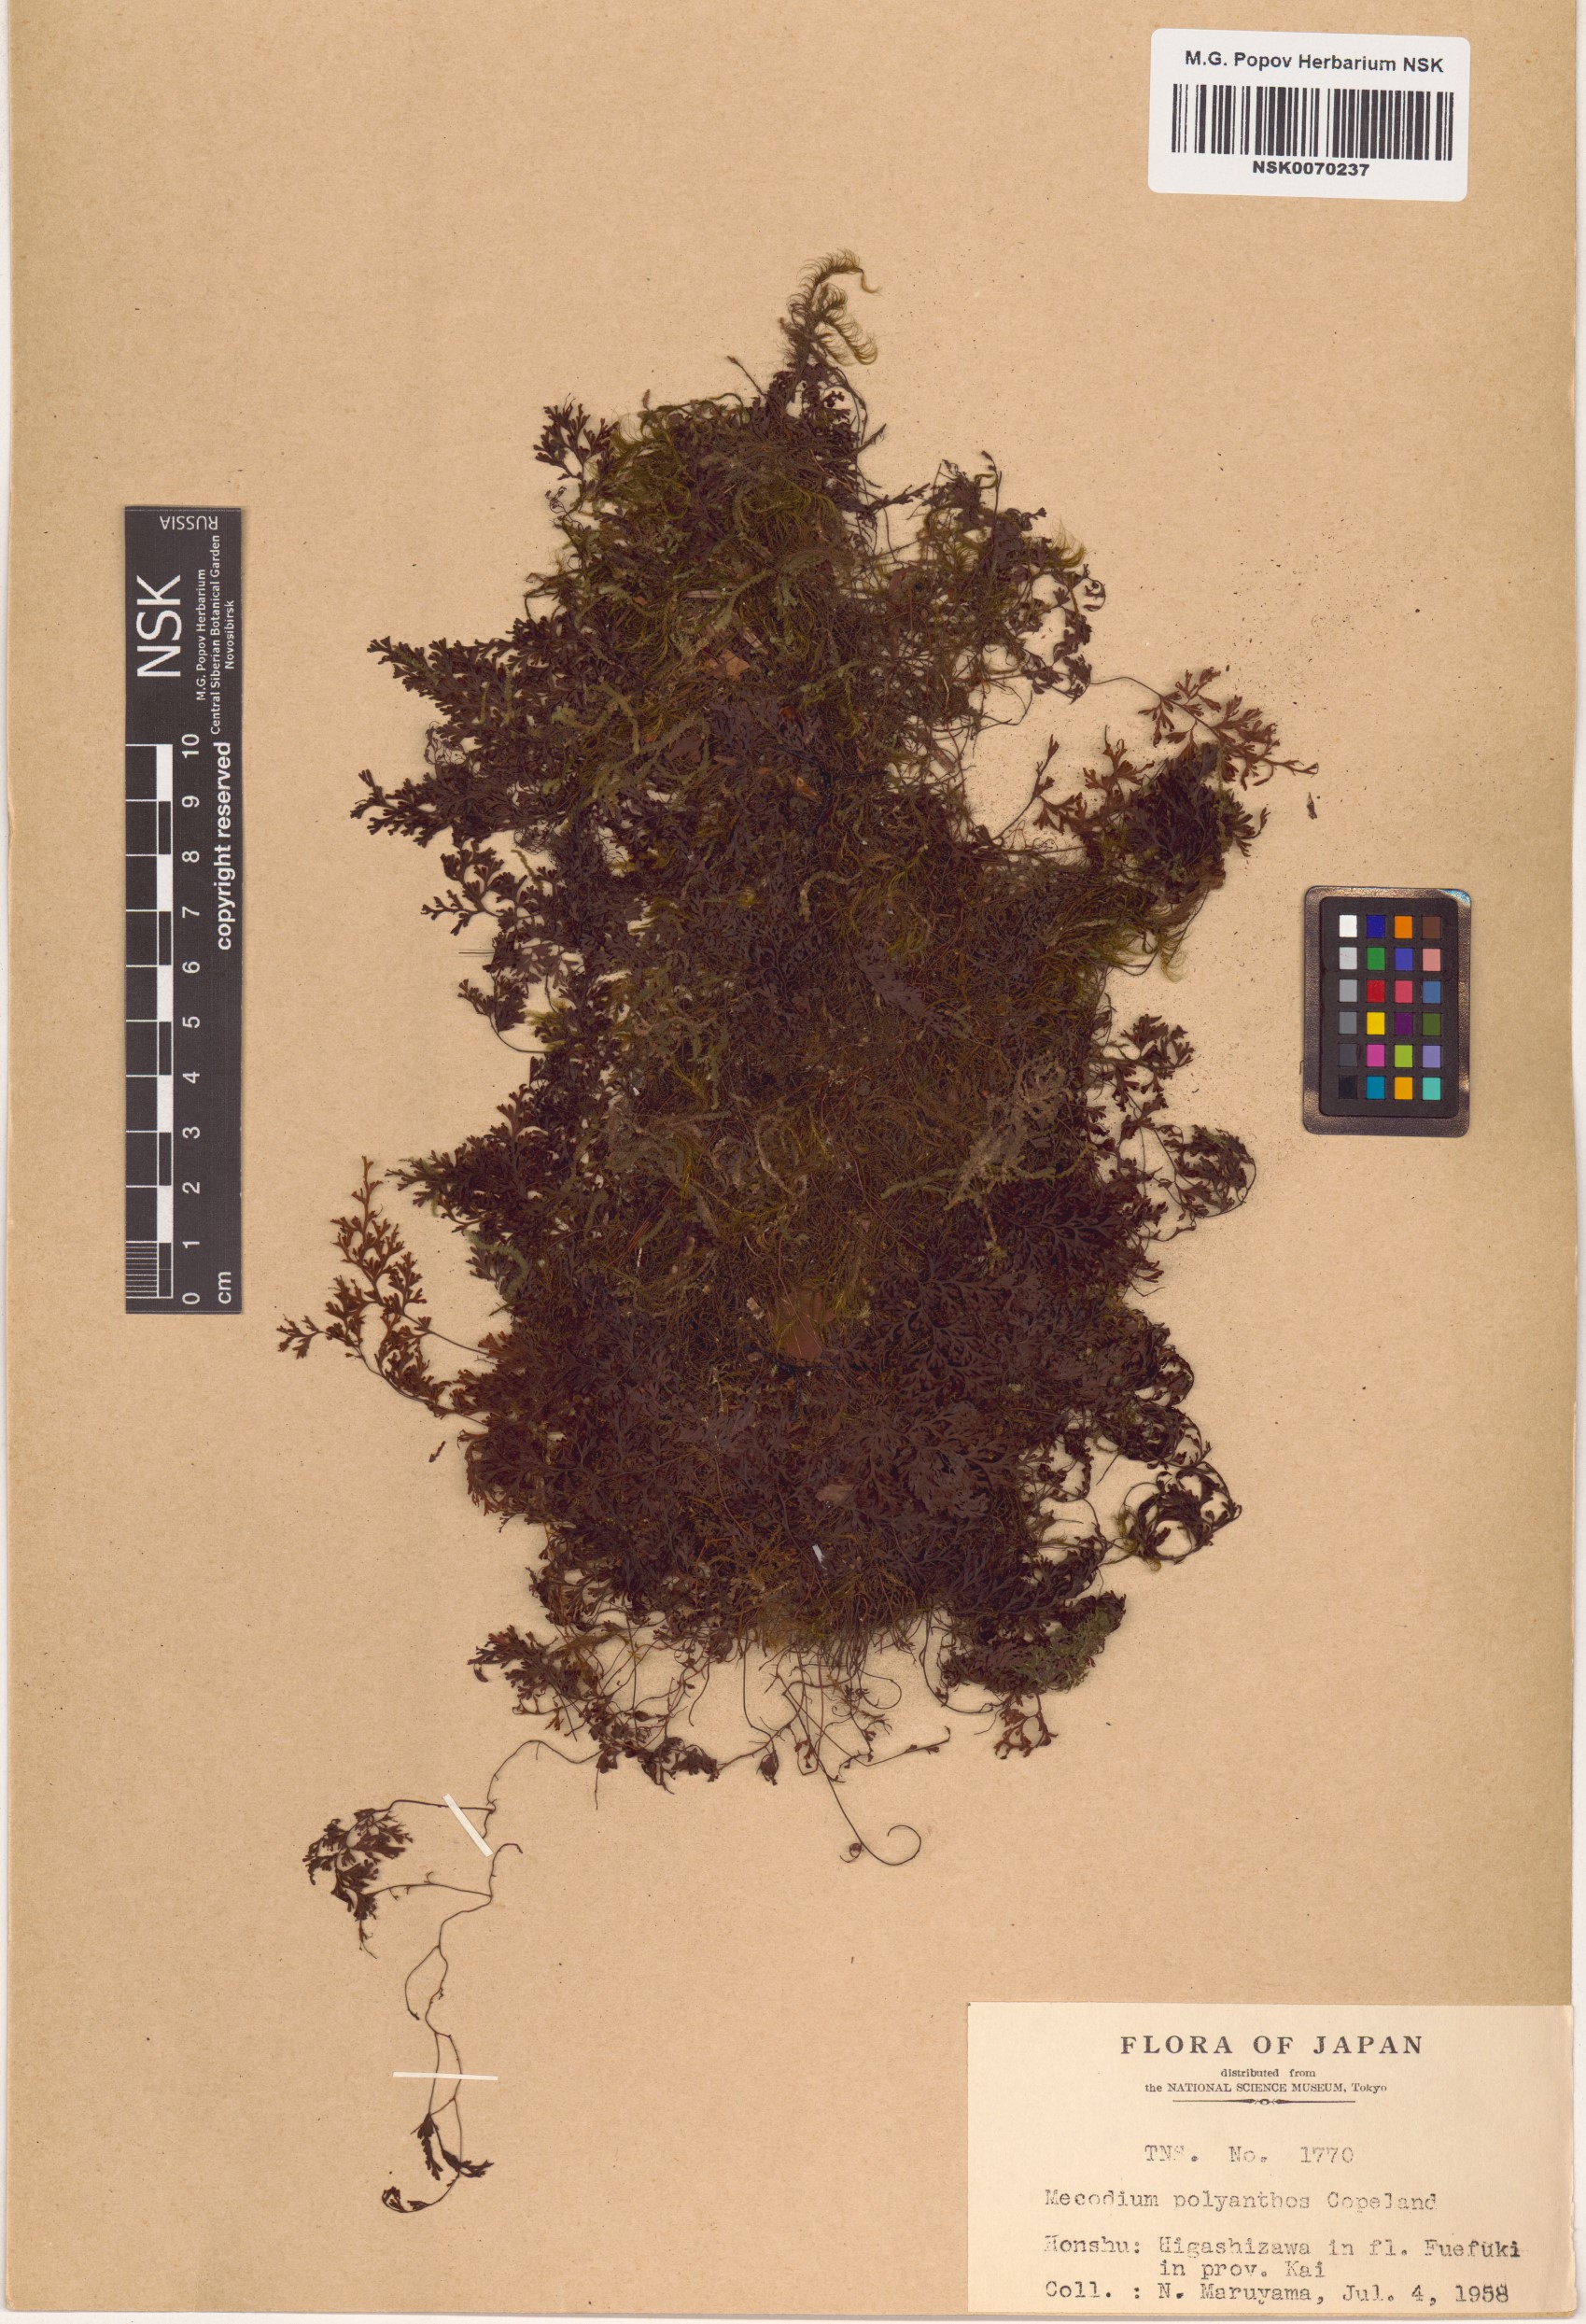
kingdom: Plantae
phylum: Tracheophyta
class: Polypodiopsida
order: Hymenophyllales
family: Hymenophyllaceae
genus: Hymenophyllum
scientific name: Hymenophyllum polyanthos
